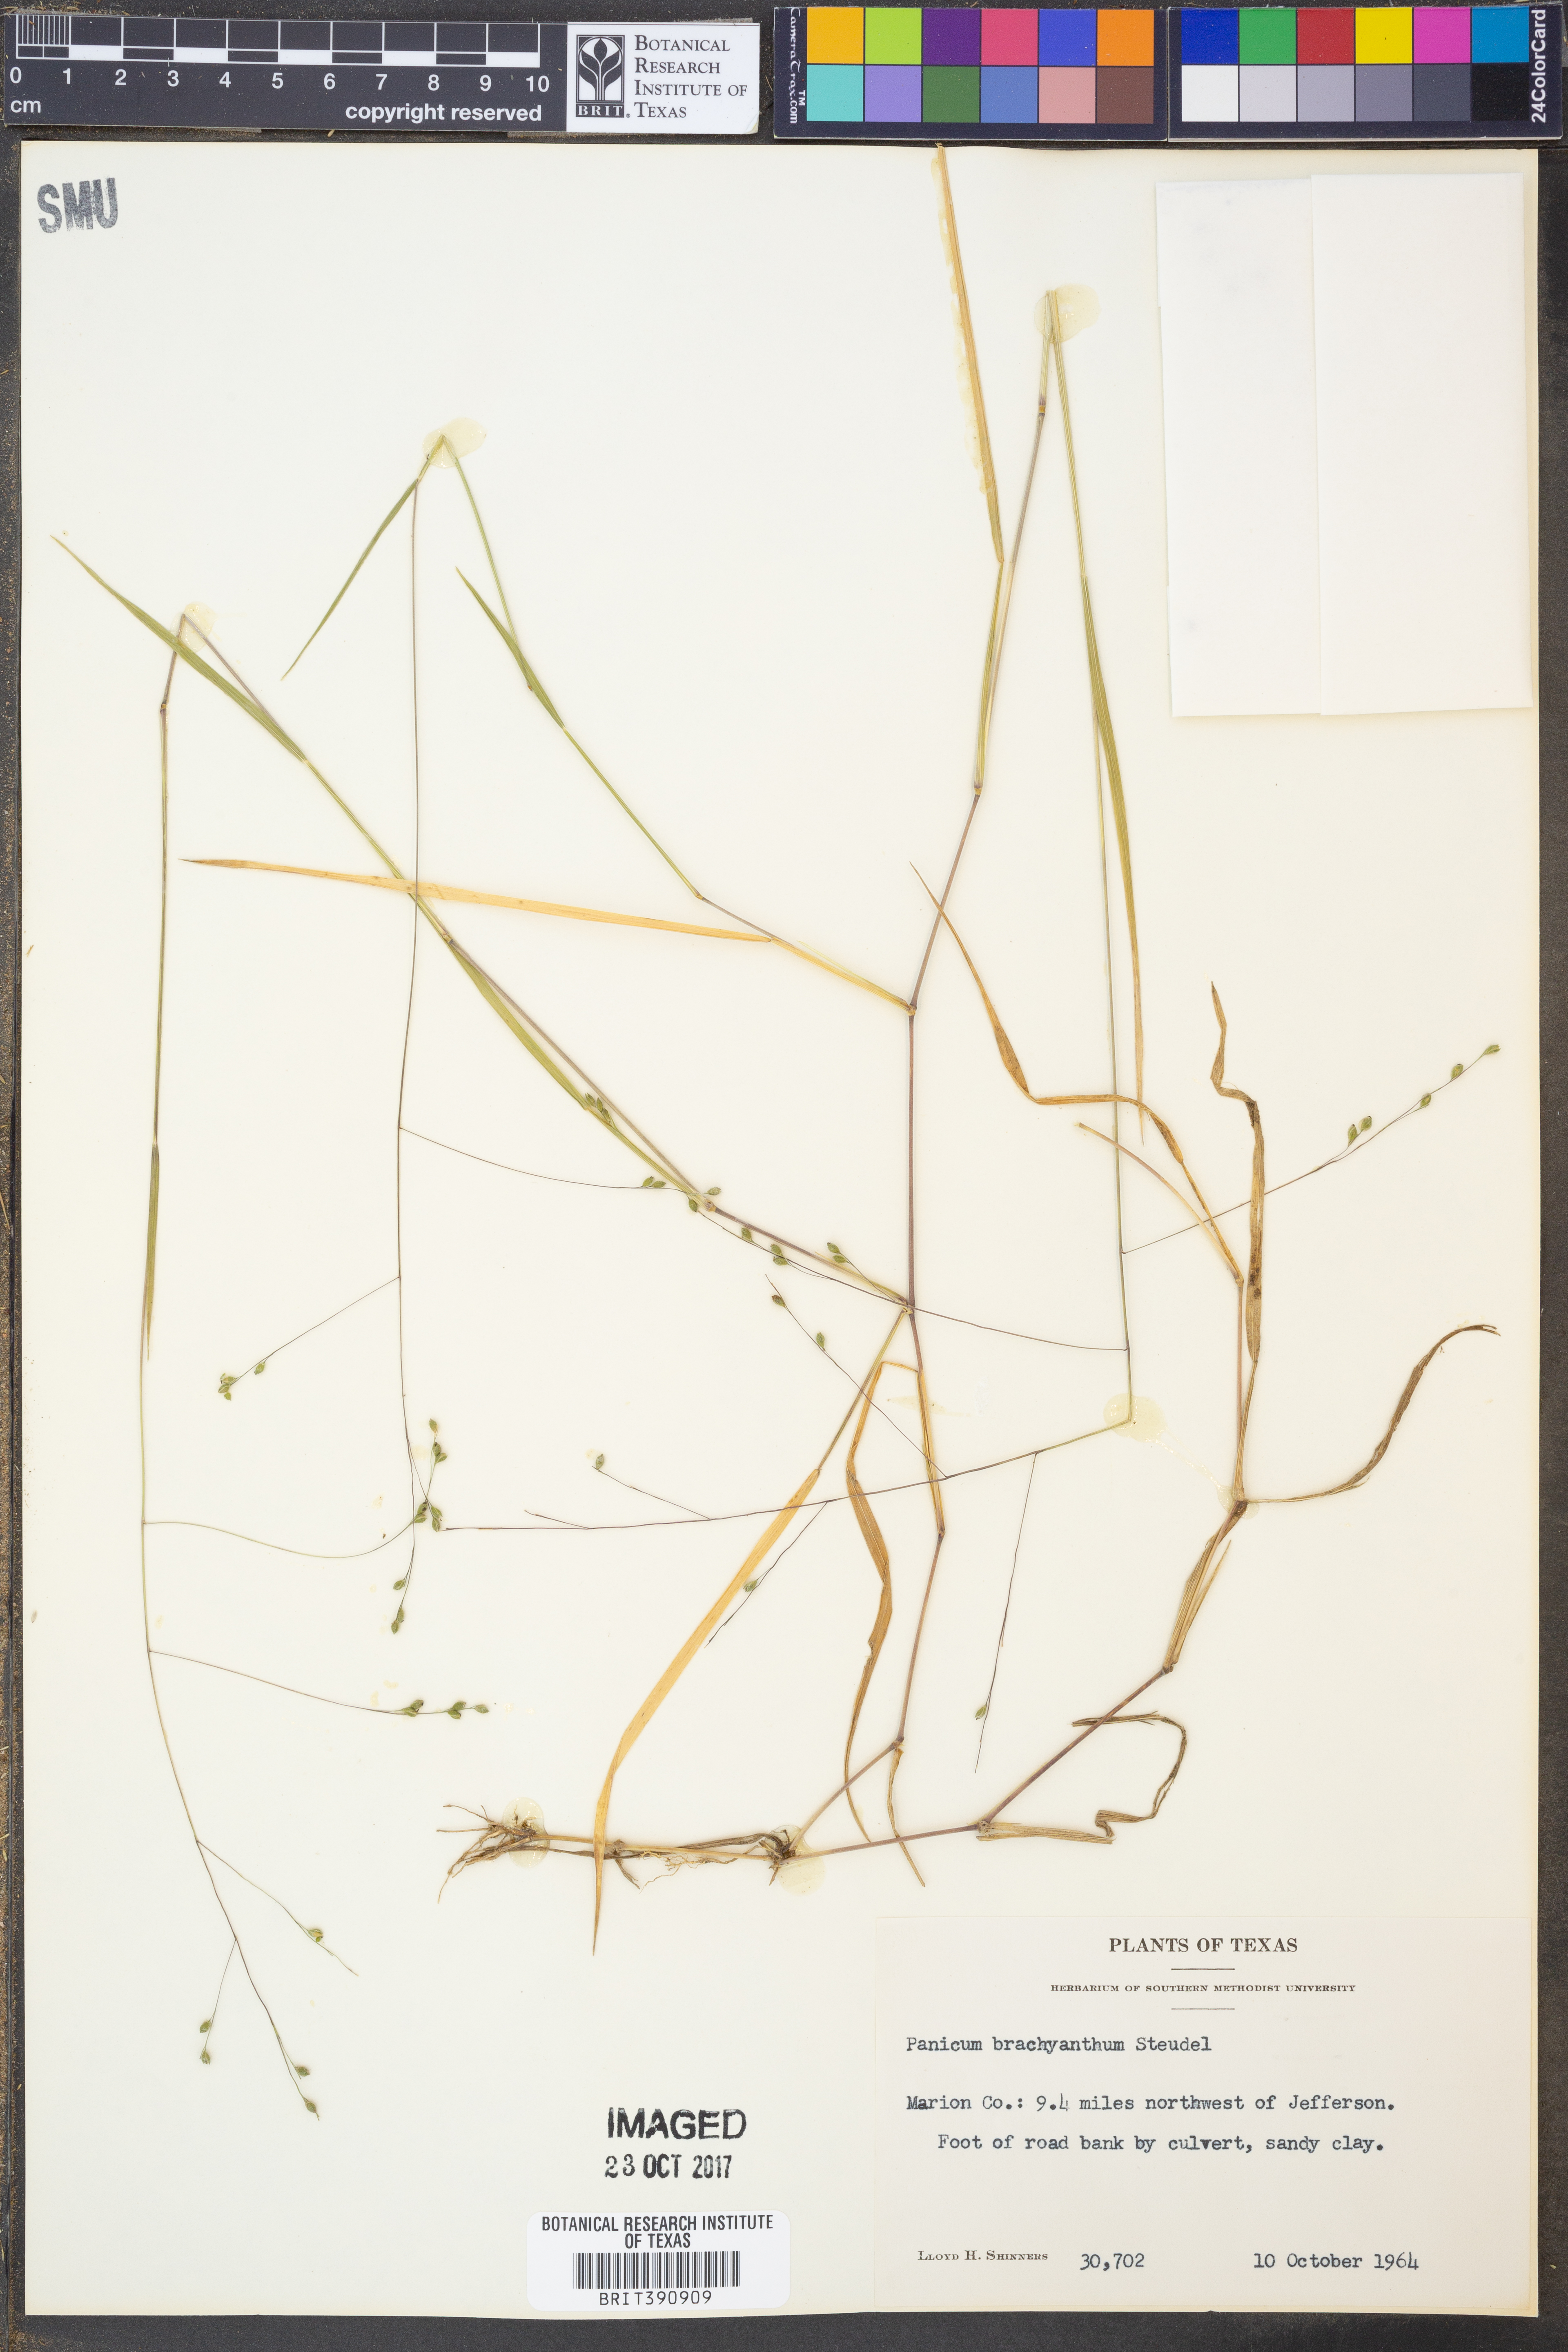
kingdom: Plantae
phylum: Tracheophyta
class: Liliopsida
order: Poales
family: Poaceae
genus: Kellochloa
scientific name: Kellochloa brachyantha
